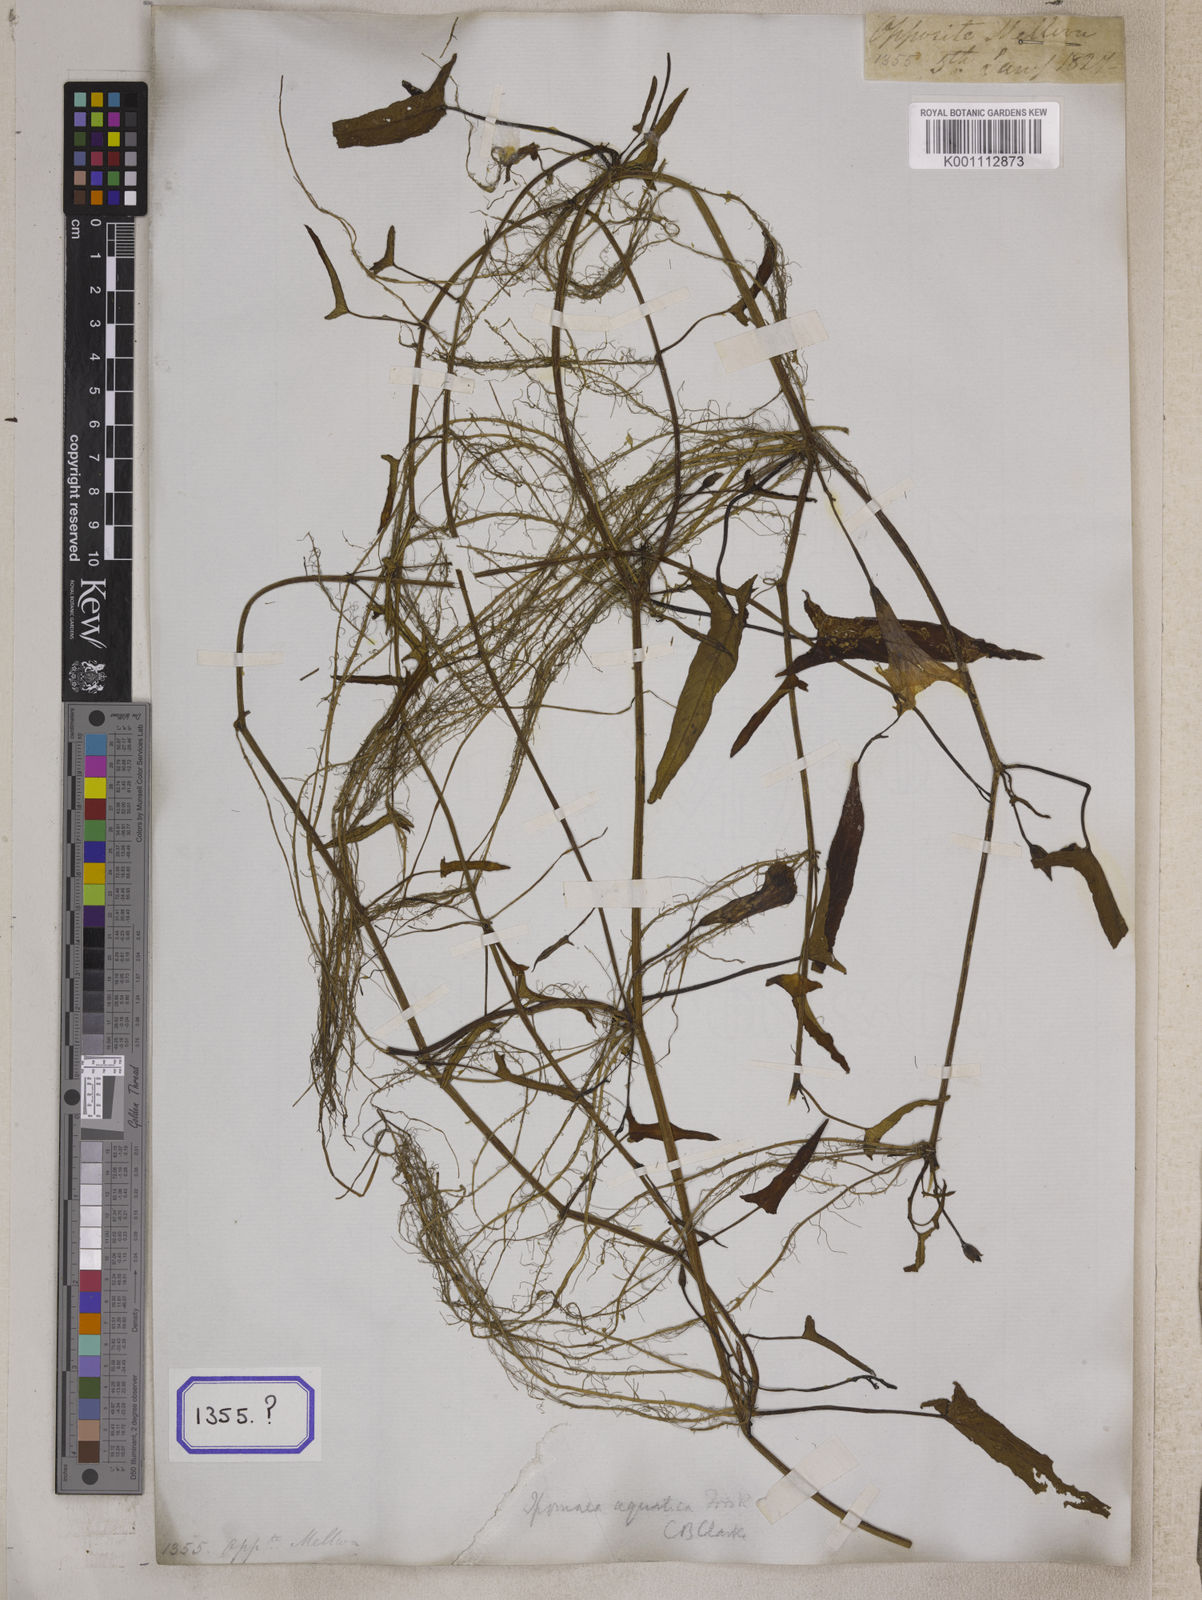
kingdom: Plantae
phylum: Tracheophyta
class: Magnoliopsida
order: Solanales
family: Convolvulaceae
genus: Calystegia
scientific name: Calystegia sepium
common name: Hedge bindweed
